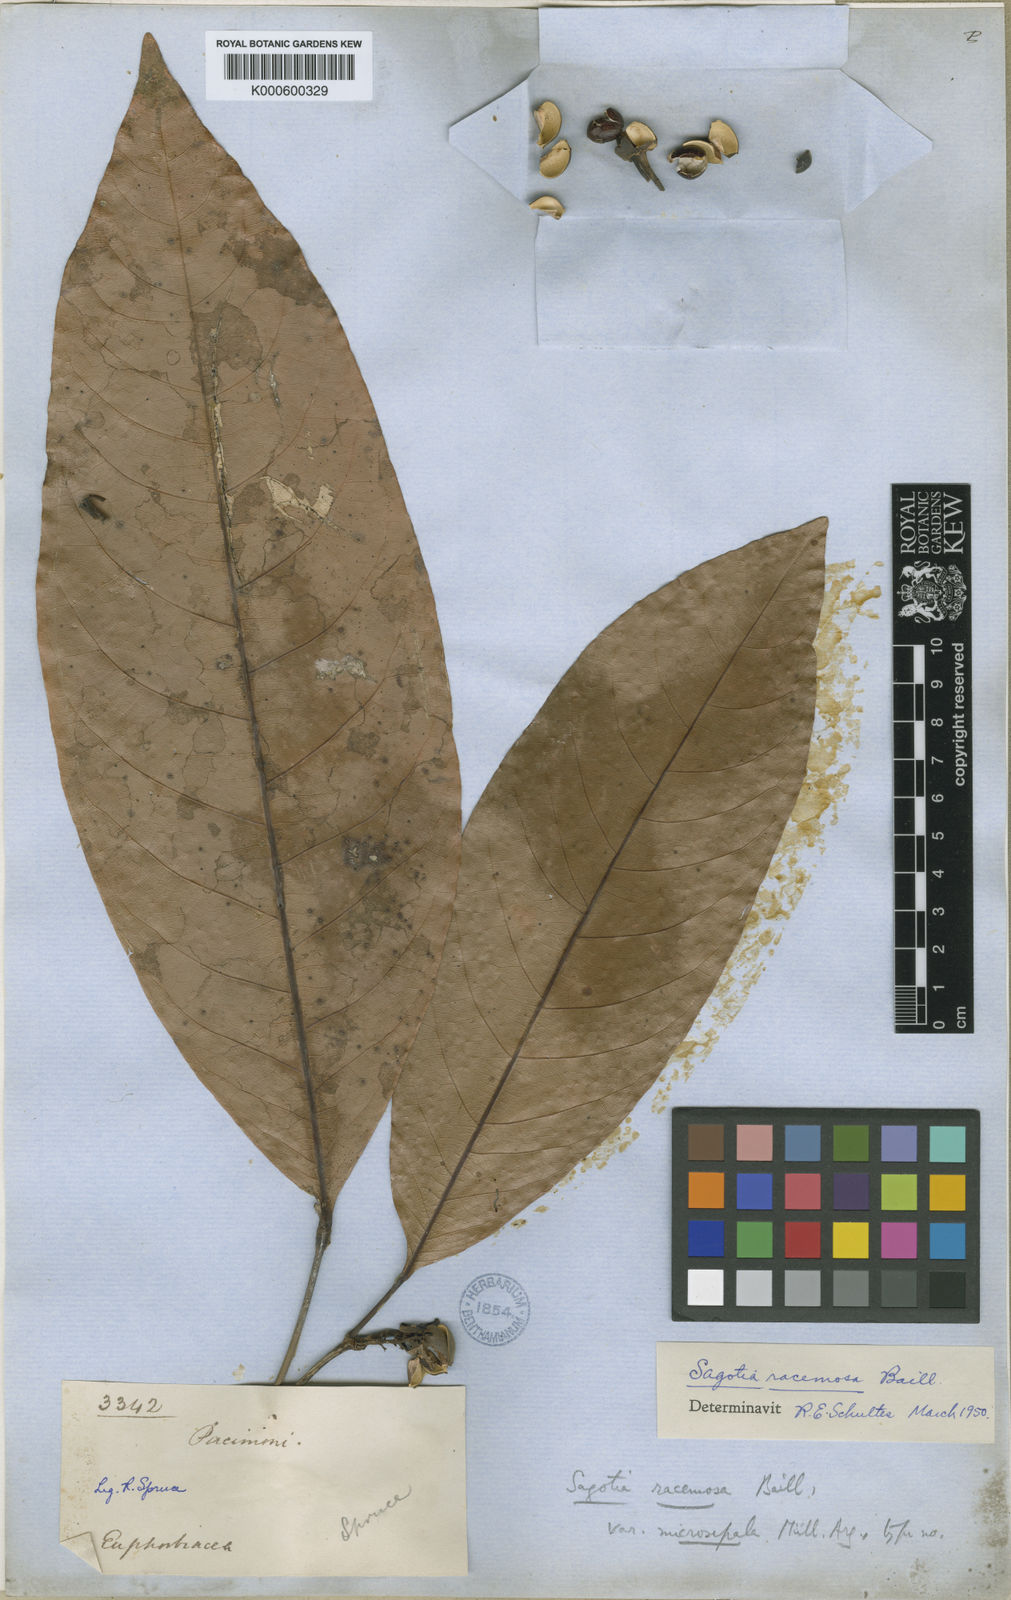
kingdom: Plantae
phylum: Tracheophyta
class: Magnoliopsida
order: Malpighiales
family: Euphorbiaceae
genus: Sagotia
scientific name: Sagotia racemosa
